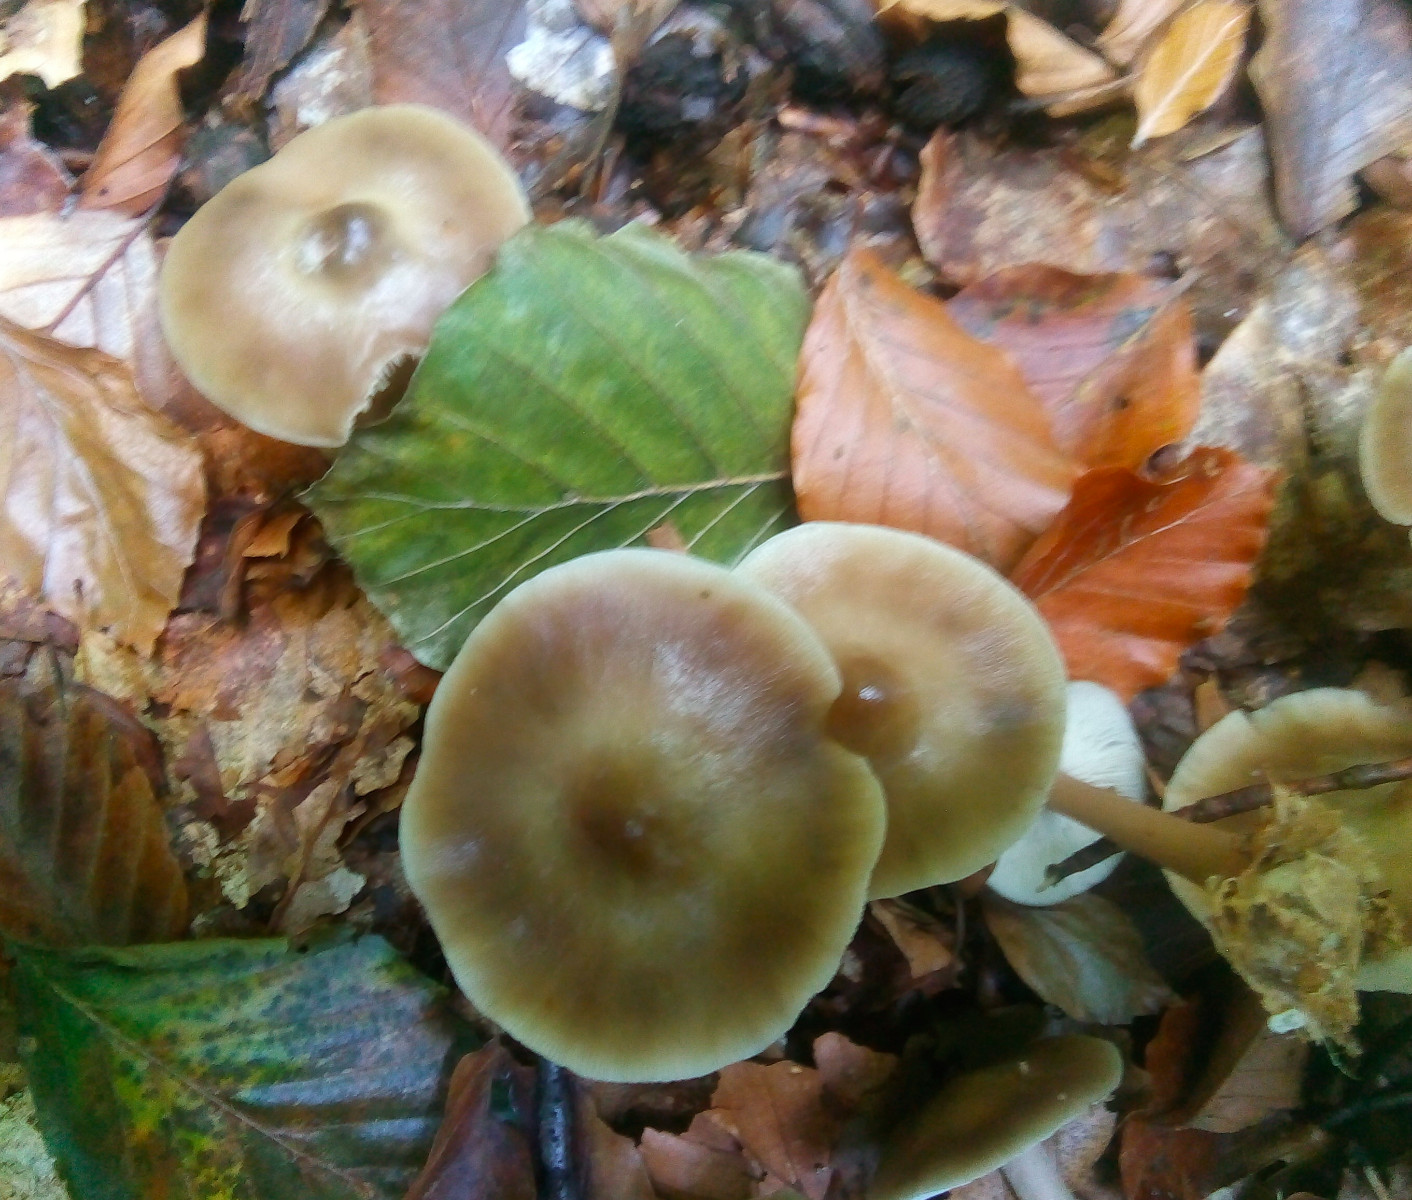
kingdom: Fungi
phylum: Basidiomycota
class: Agaricomycetes
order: Agaricales
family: Omphalotaceae
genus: Rhodocollybia
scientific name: Rhodocollybia asema
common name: horngrå fladhat
